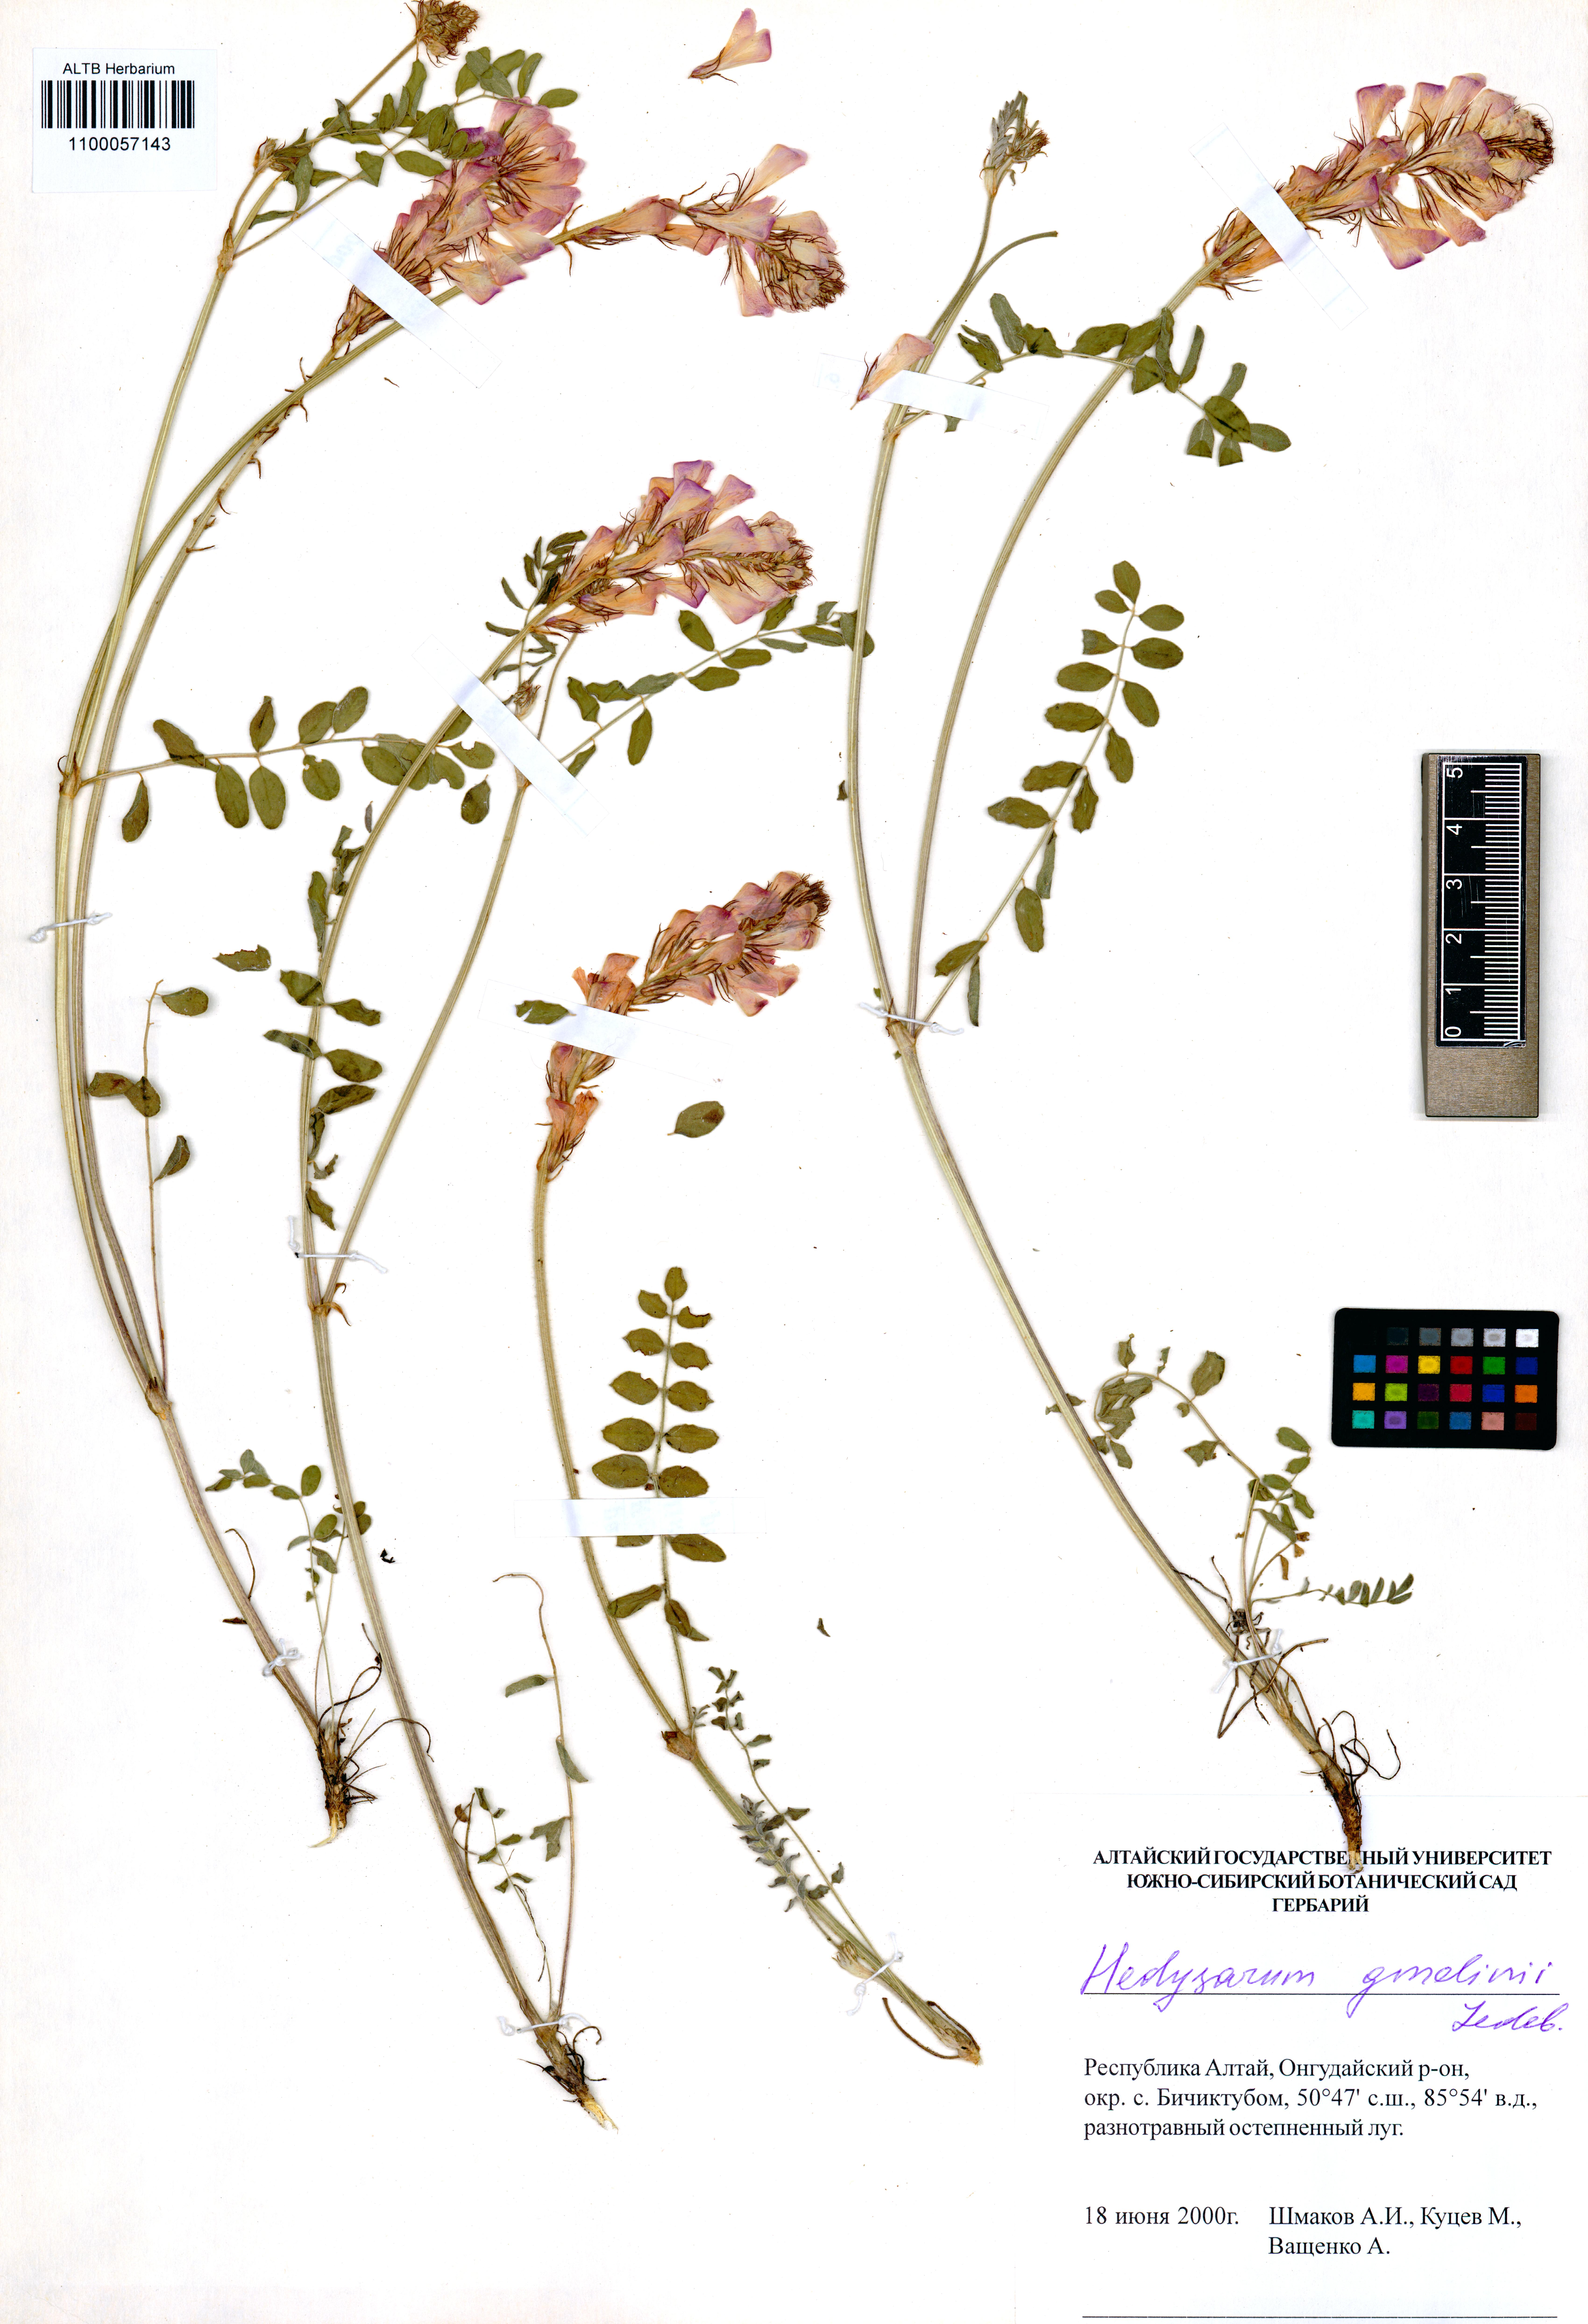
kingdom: Plantae
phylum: Tracheophyta
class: Magnoliopsida
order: Fabales
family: Fabaceae
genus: Hedysarum
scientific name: Hedysarum gmelinii
